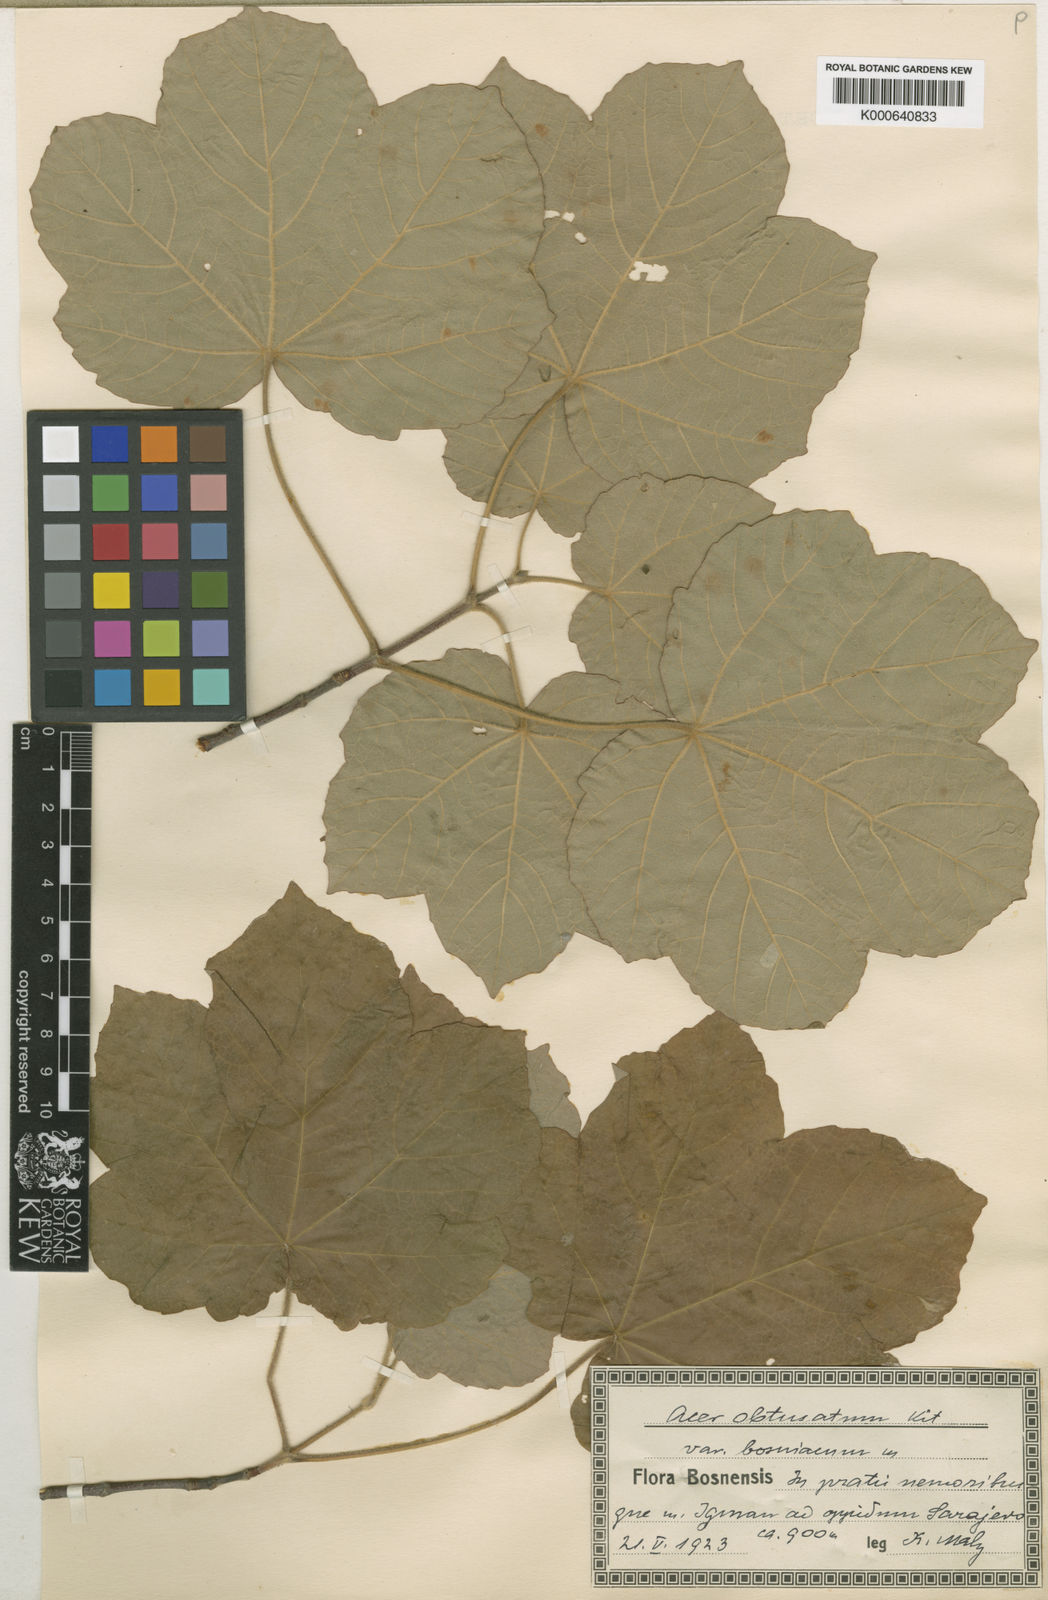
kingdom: Plantae
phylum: Tracheophyta
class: Magnoliopsida
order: Sapindales
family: Sapindaceae
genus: Acer
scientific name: Acer opalus
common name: Italian maple
